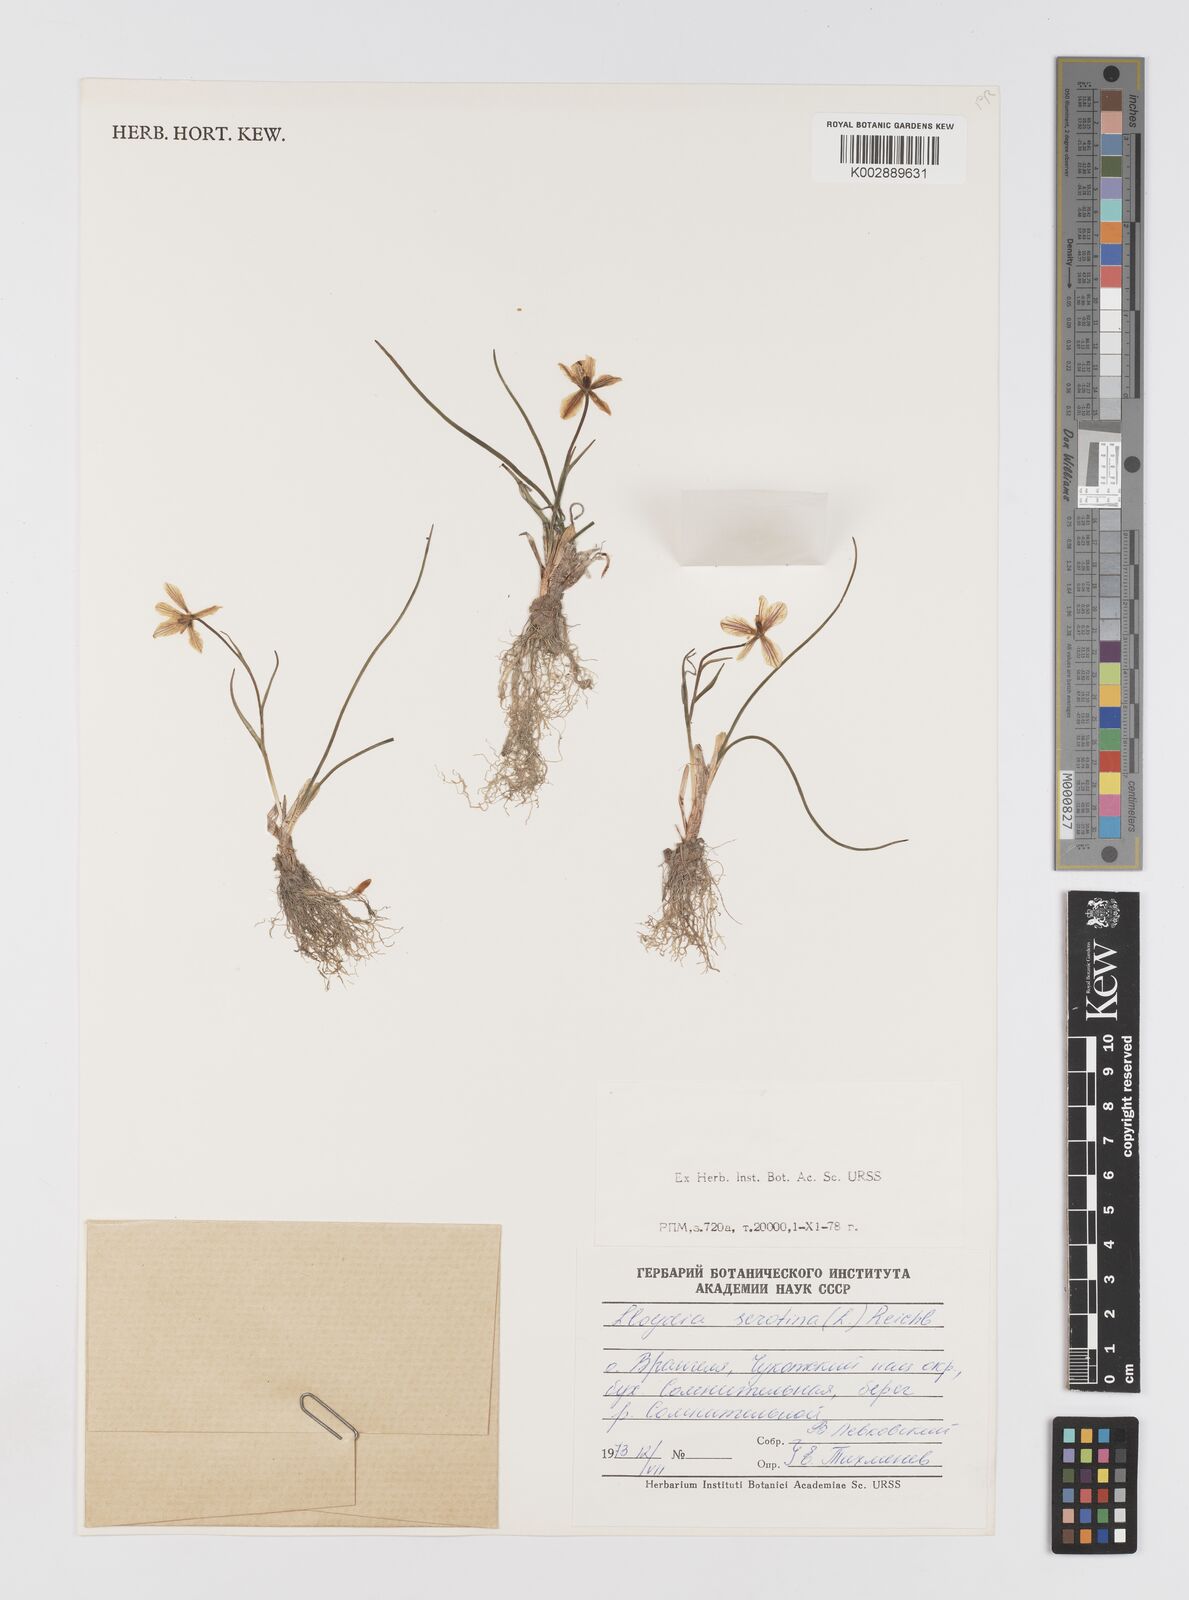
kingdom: Plantae
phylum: Tracheophyta
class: Liliopsida
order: Liliales
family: Liliaceae
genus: Gagea
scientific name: Gagea serotina
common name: Snowdon lily
